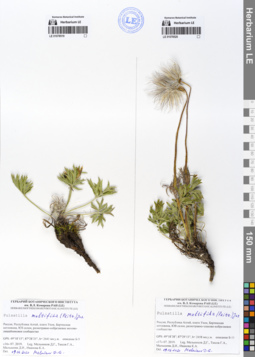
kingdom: Plantae
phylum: Tracheophyta
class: Magnoliopsida
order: Ranunculales
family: Ranunculaceae
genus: Pulsatilla
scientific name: Pulsatilla patens
